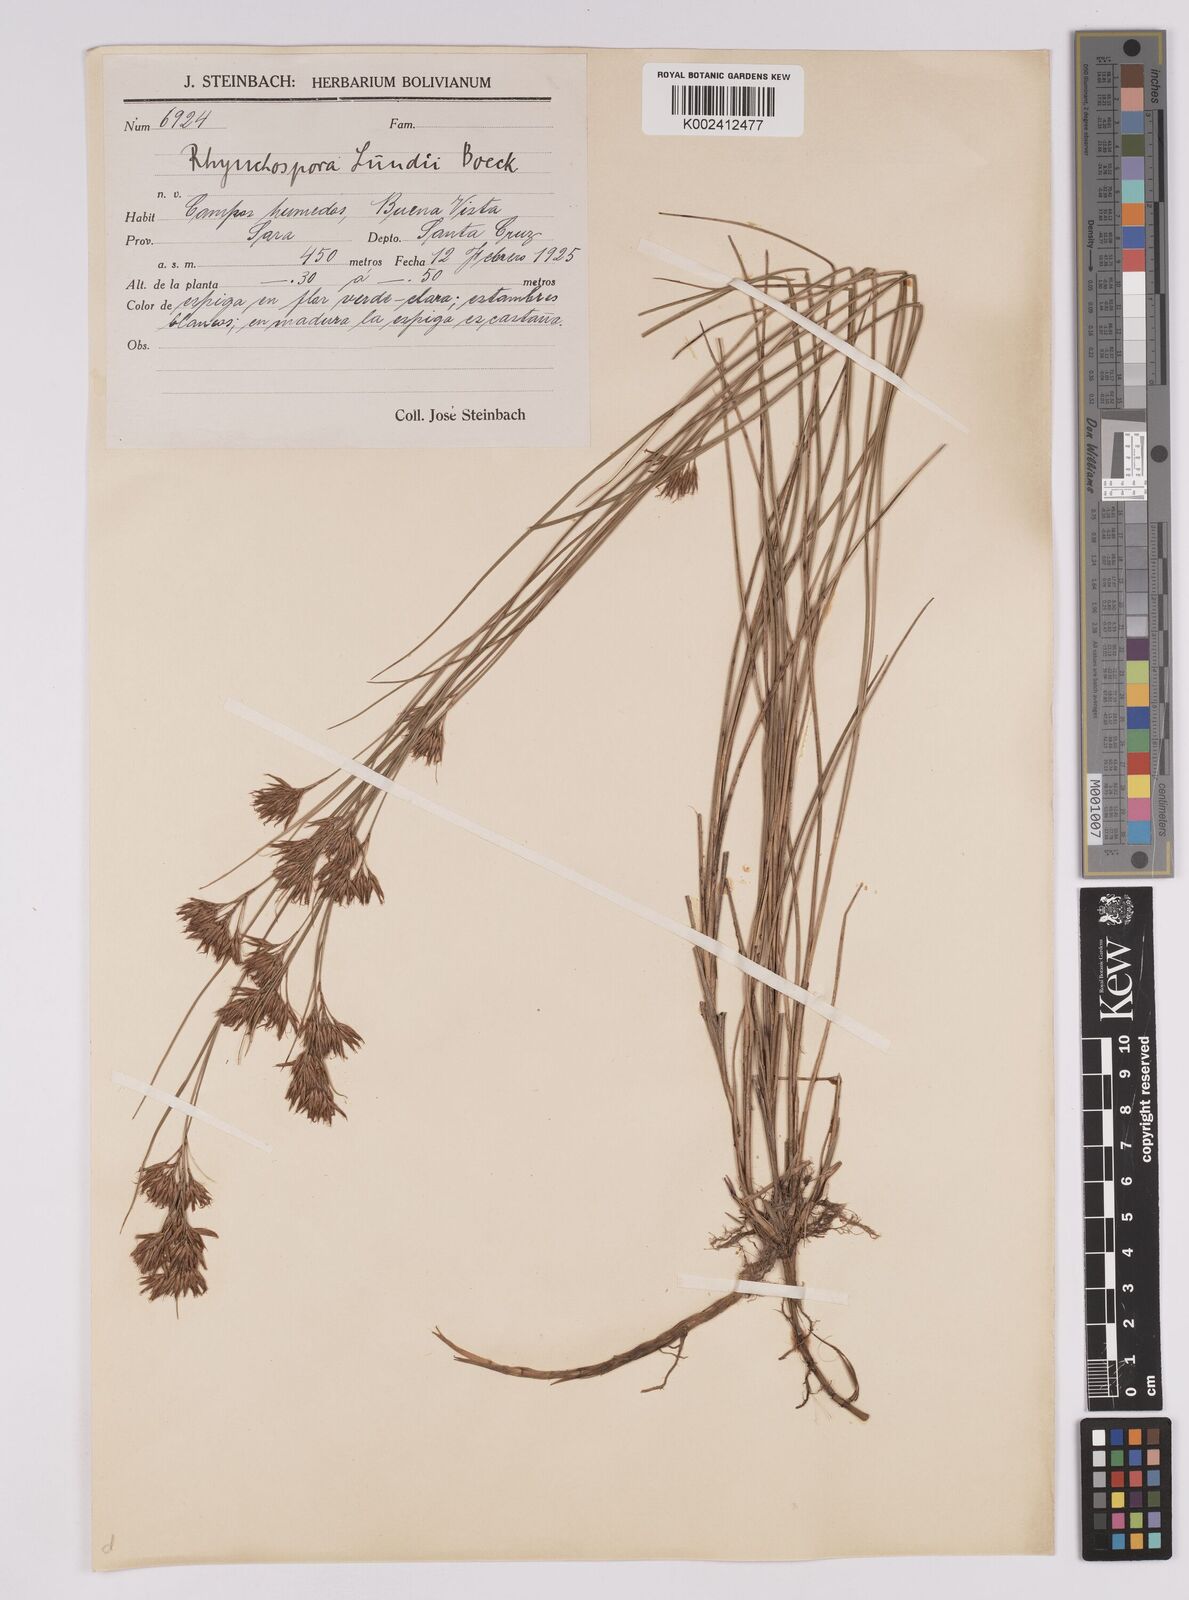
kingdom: Plantae
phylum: Tracheophyta
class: Liliopsida
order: Poales
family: Cyperaceae
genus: Rhynchospora
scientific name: Rhynchospora confinis
